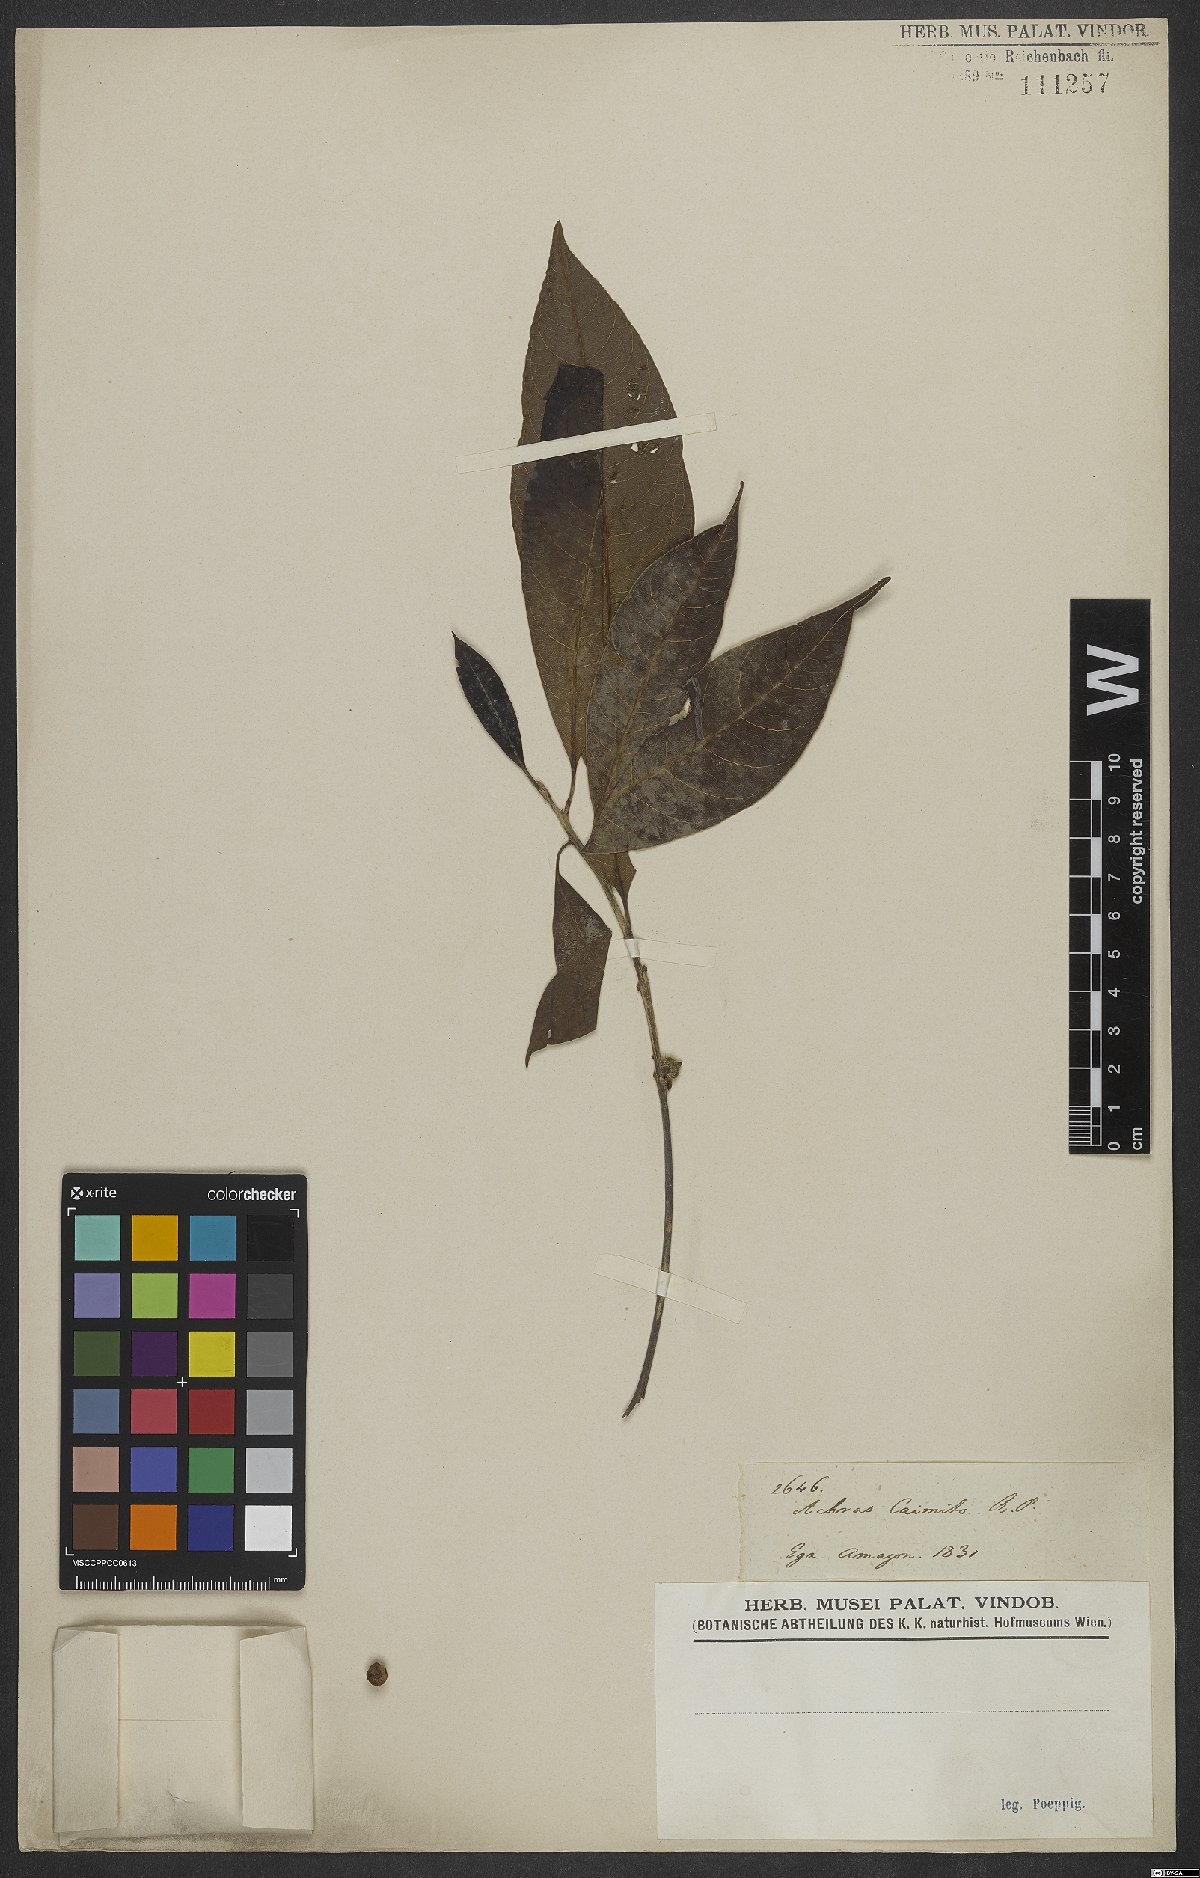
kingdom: Plantae
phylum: Tracheophyta
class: Magnoliopsida
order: Ericales
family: Sapotaceae
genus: Pouteria
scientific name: Pouteria caimito
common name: Caimito
